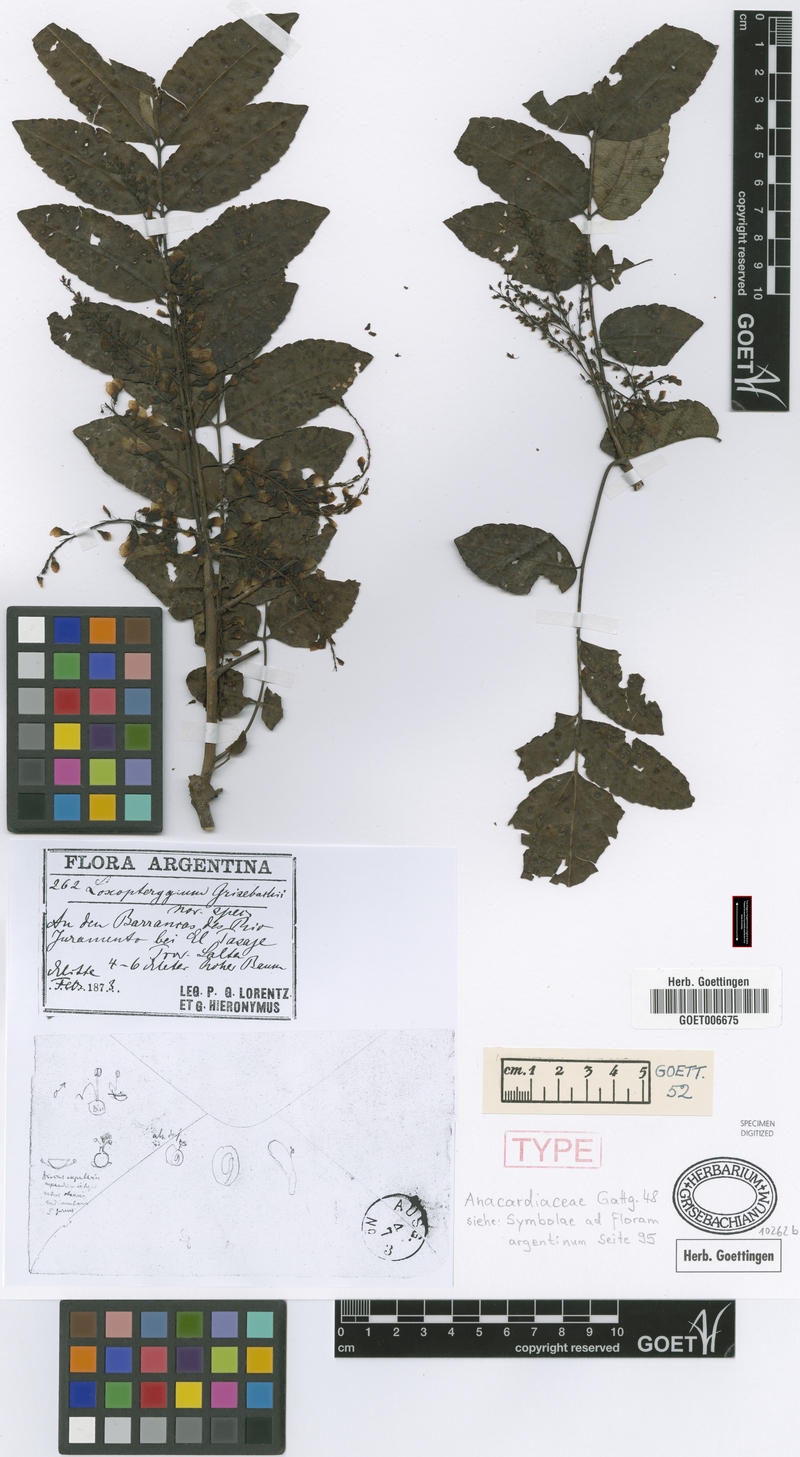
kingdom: Plantae
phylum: Tracheophyta
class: Magnoliopsida
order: Sapindales
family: Anacardiaceae
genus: Loxopterygium
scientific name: Loxopterygium
